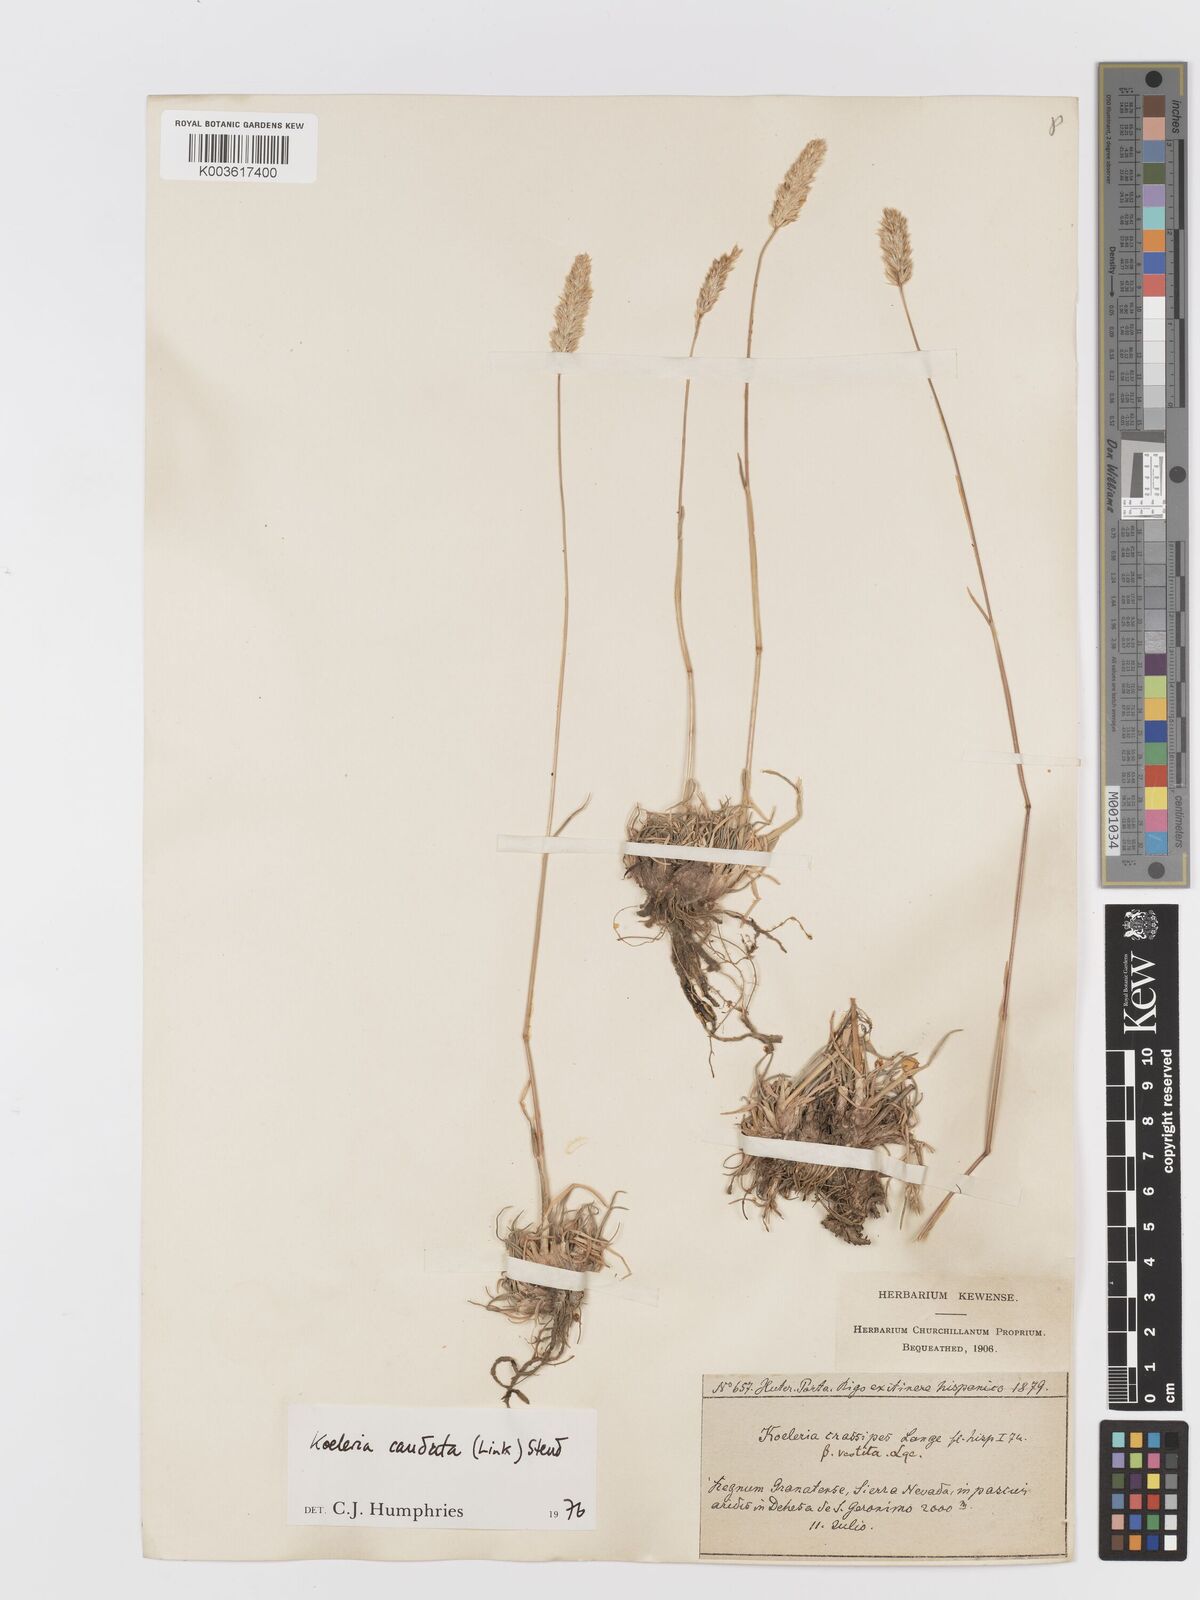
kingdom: Plantae
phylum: Tracheophyta
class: Liliopsida
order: Poales
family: Poaceae
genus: Koeleria
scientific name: Koeleria caudata
